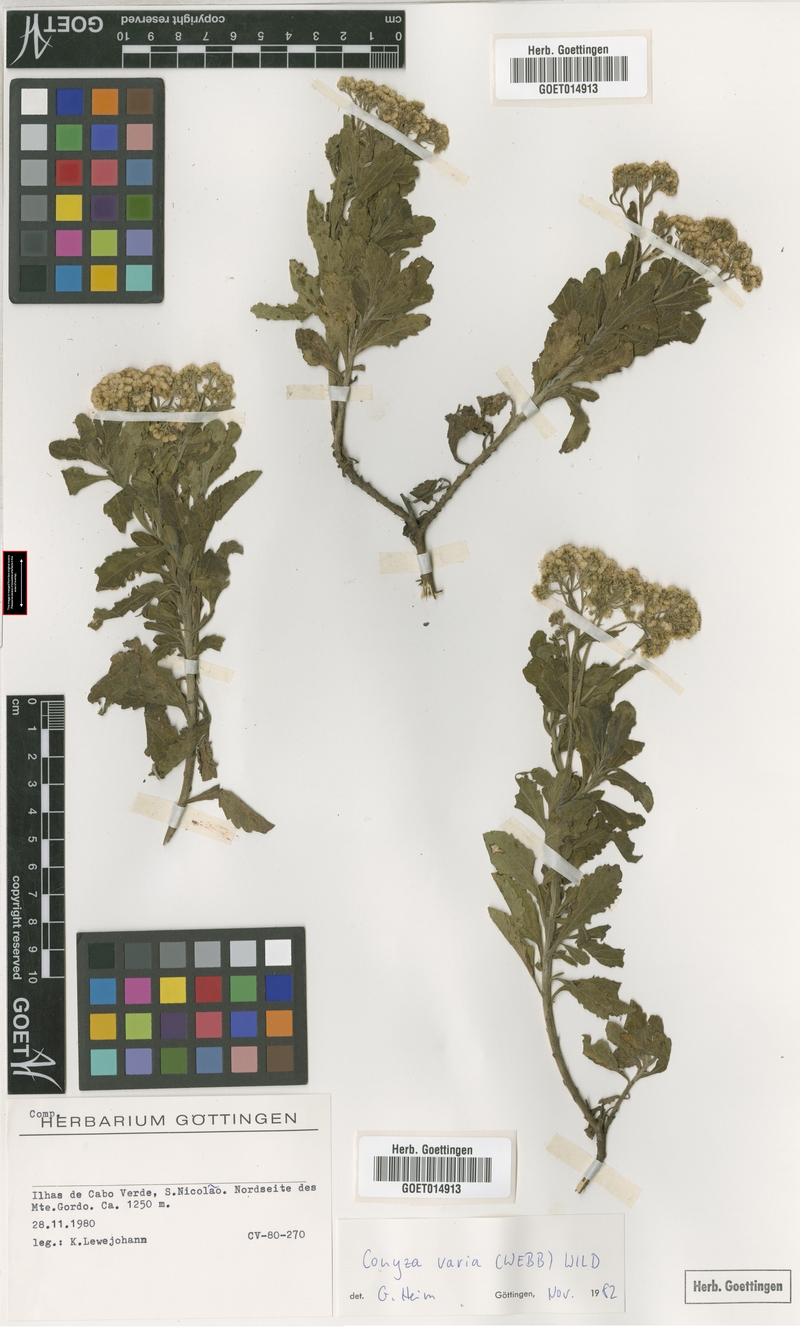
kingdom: Plantae
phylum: Tracheophyta
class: Magnoliopsida
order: Asterales
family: Asteraceae
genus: Nidorella
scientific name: Nidorella varia
